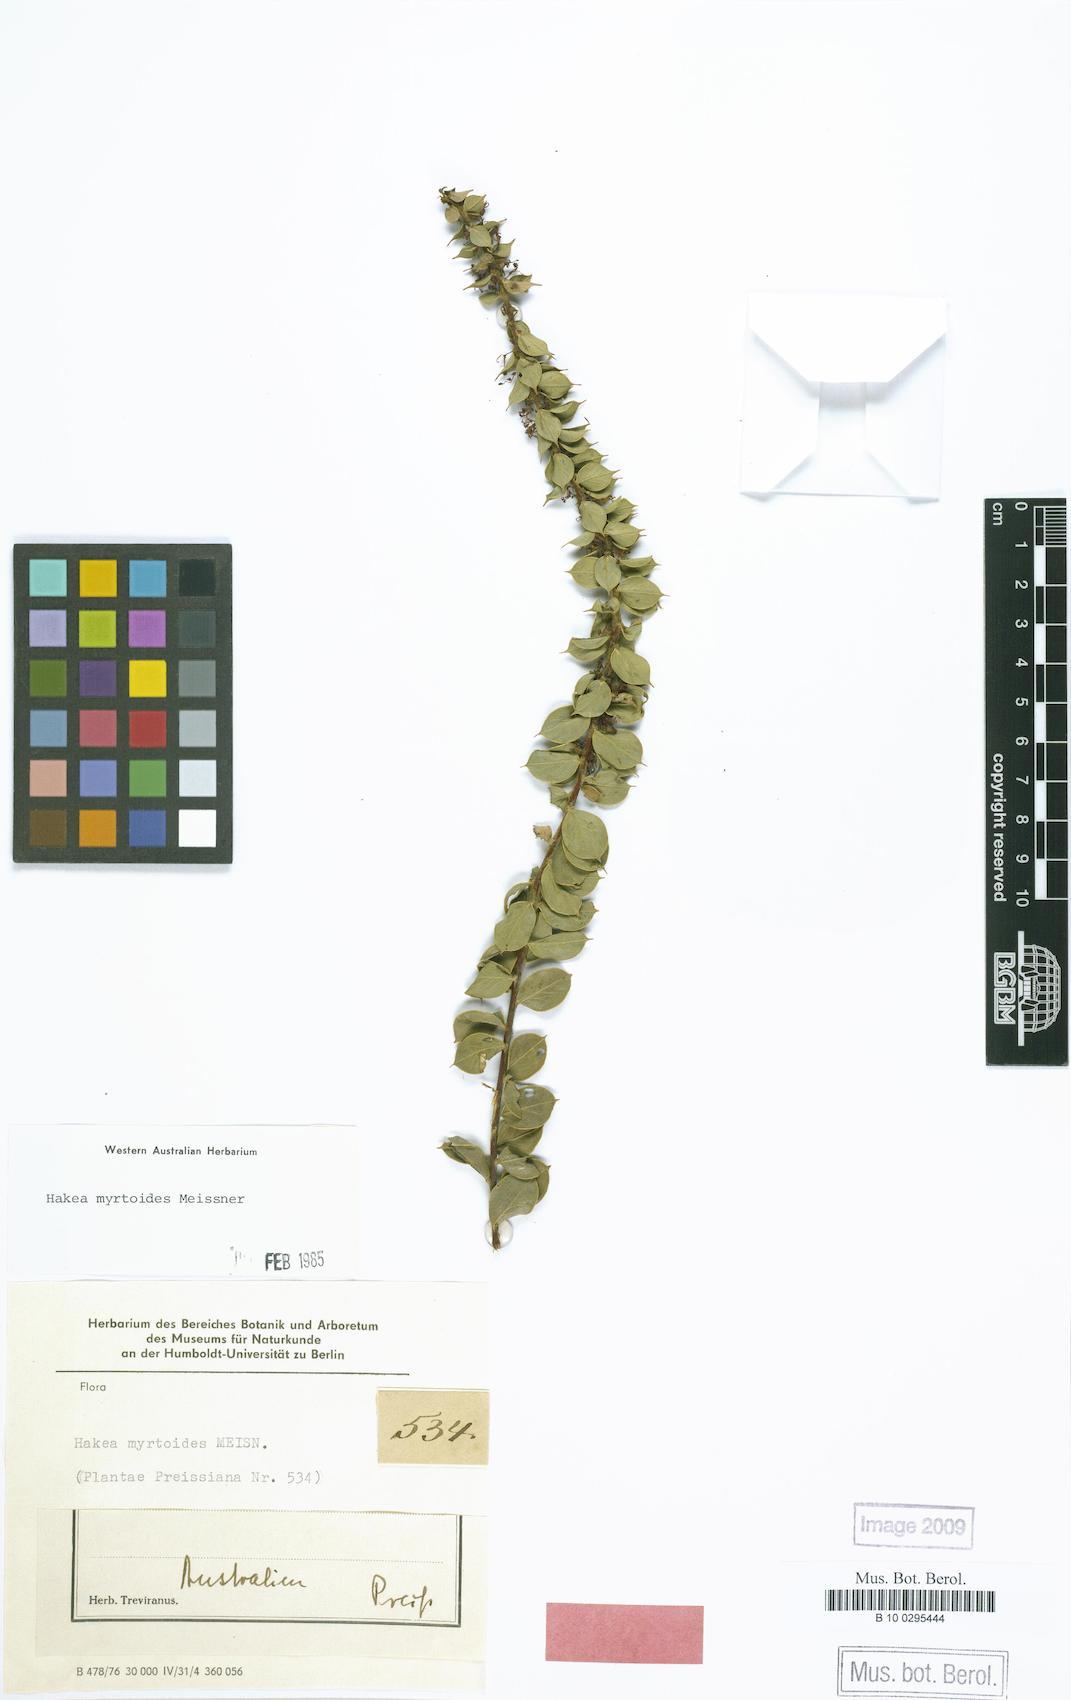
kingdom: Plantae
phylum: Tracheophyta
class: Magnoliopsida
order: Proteales
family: Proteaceae
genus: Hakea
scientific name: Hakea myrtoides
